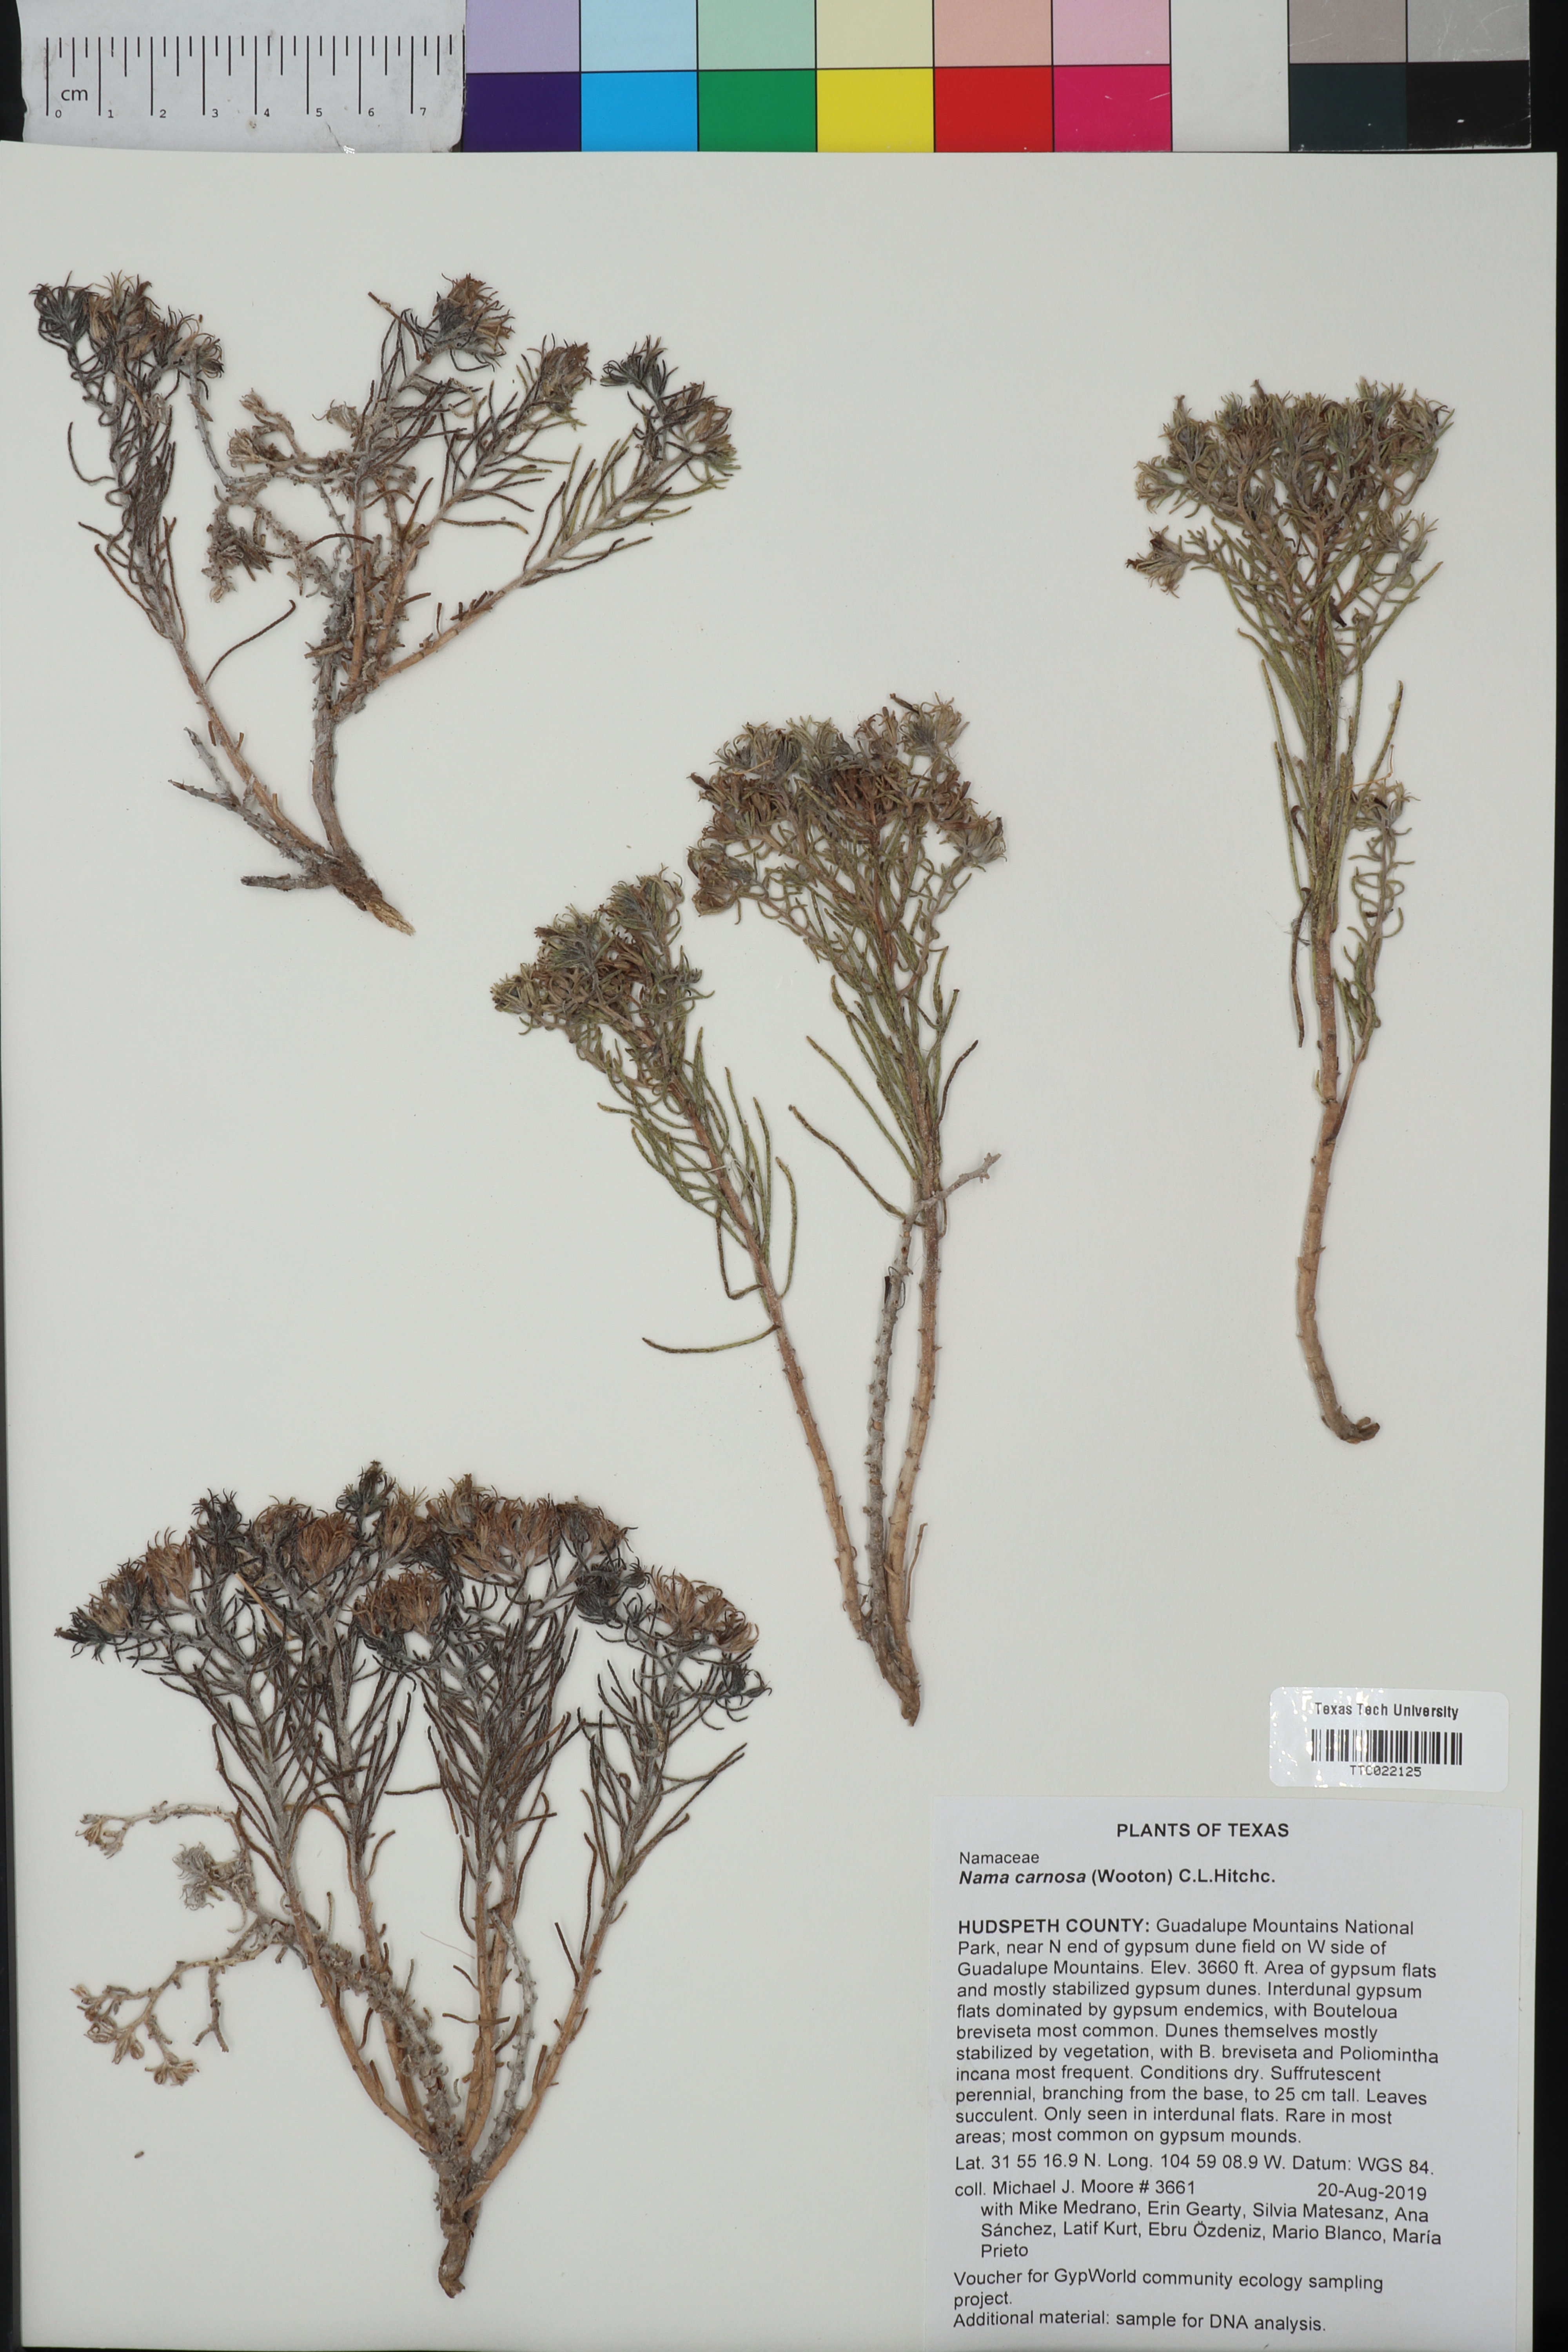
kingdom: Plantae
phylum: Tracheophyta
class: Magnoliopsida
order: Boraginales
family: Namaceae
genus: Andropus
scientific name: Andropus carnosus
